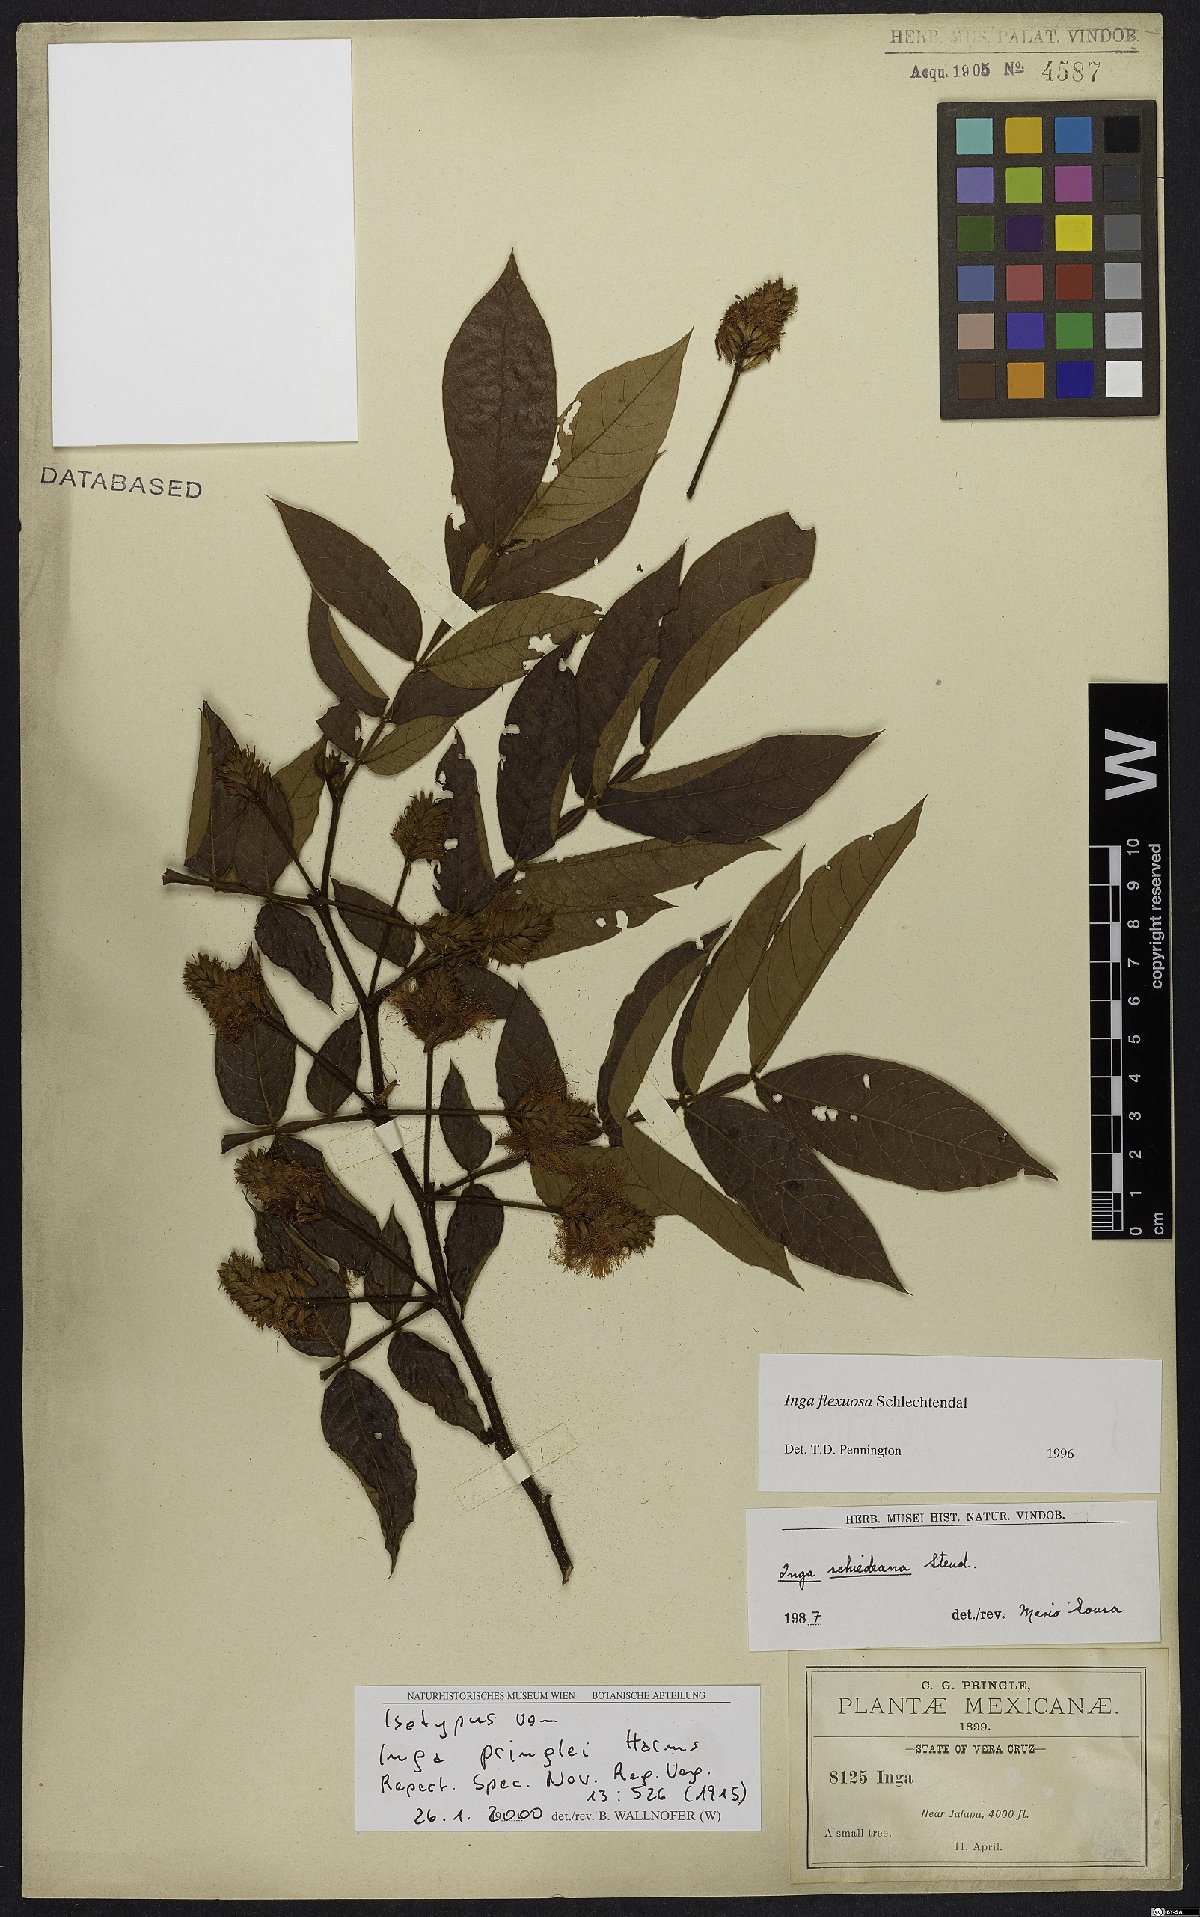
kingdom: Plantae
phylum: Tracheophyta
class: Magnoliopsida
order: Fabales
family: Fabaceae
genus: Inga
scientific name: Inga flexuosa
